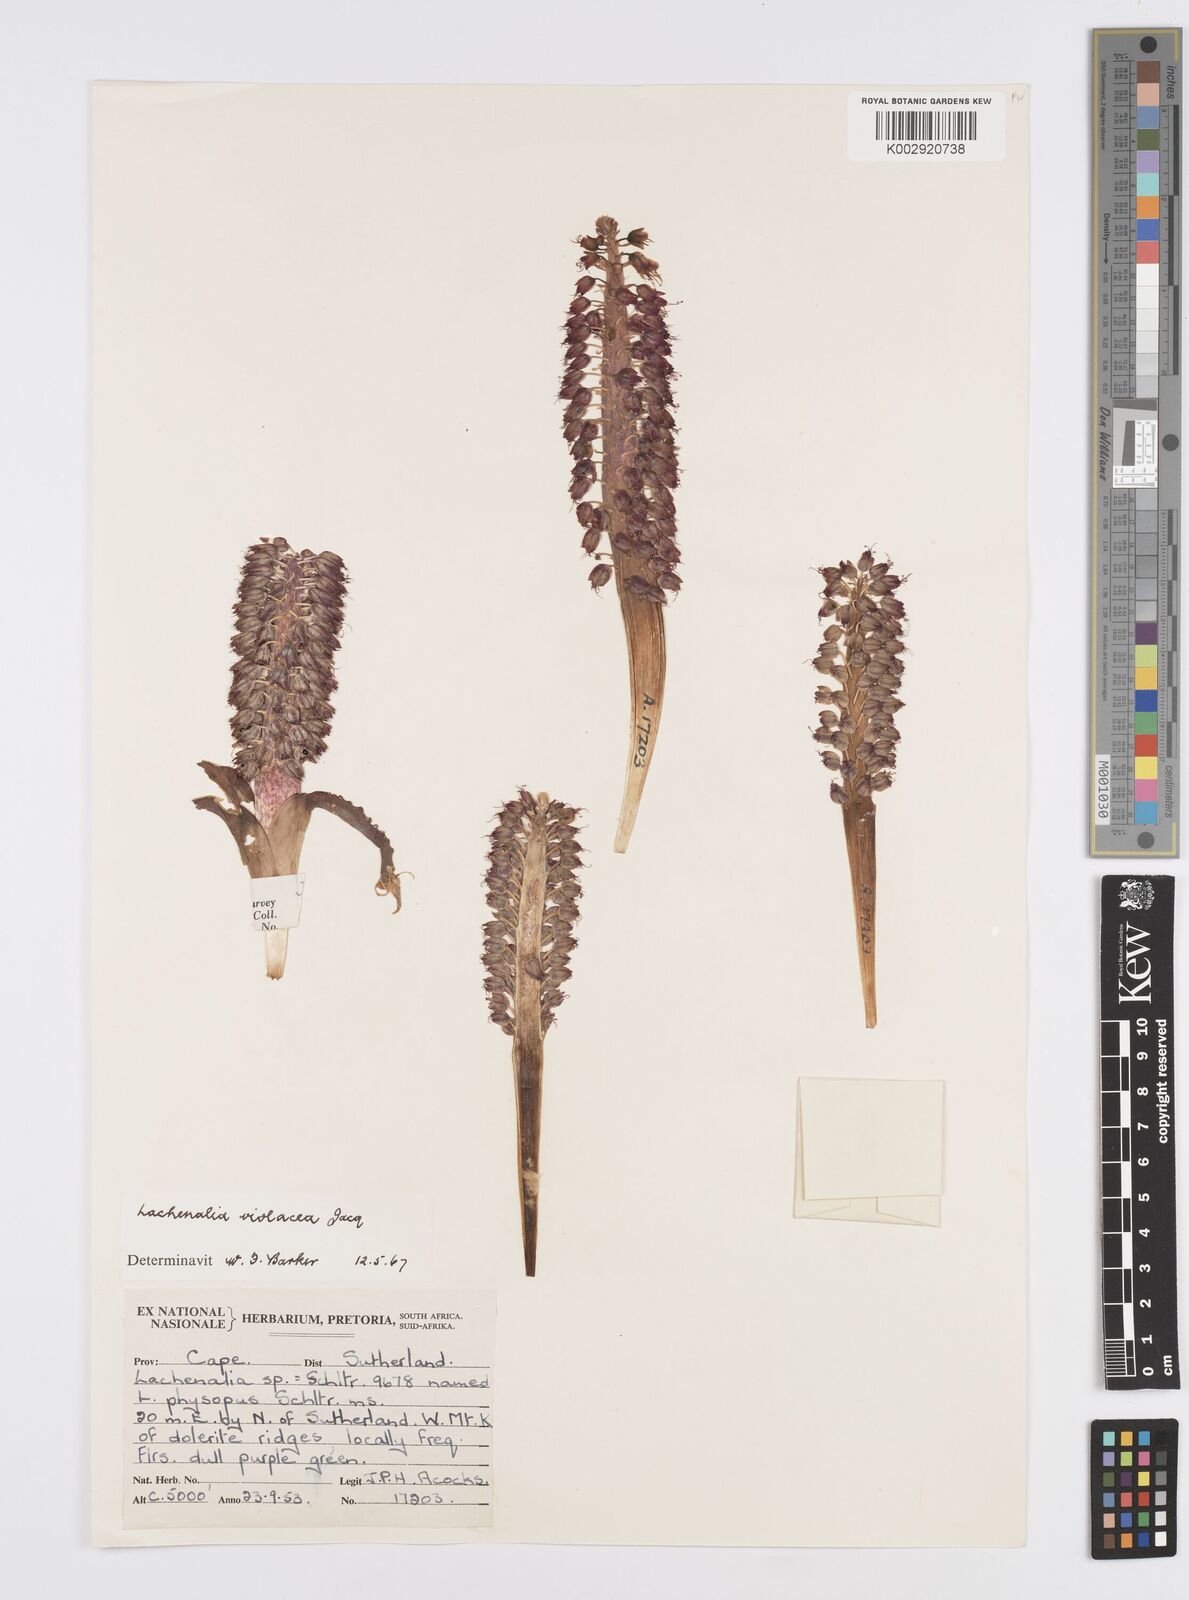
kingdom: Plantae
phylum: Tracheophyta
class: Liliopsida
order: Asparagales
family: Asparagaceae
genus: Lachenalia
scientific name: Lachenalia violacea
